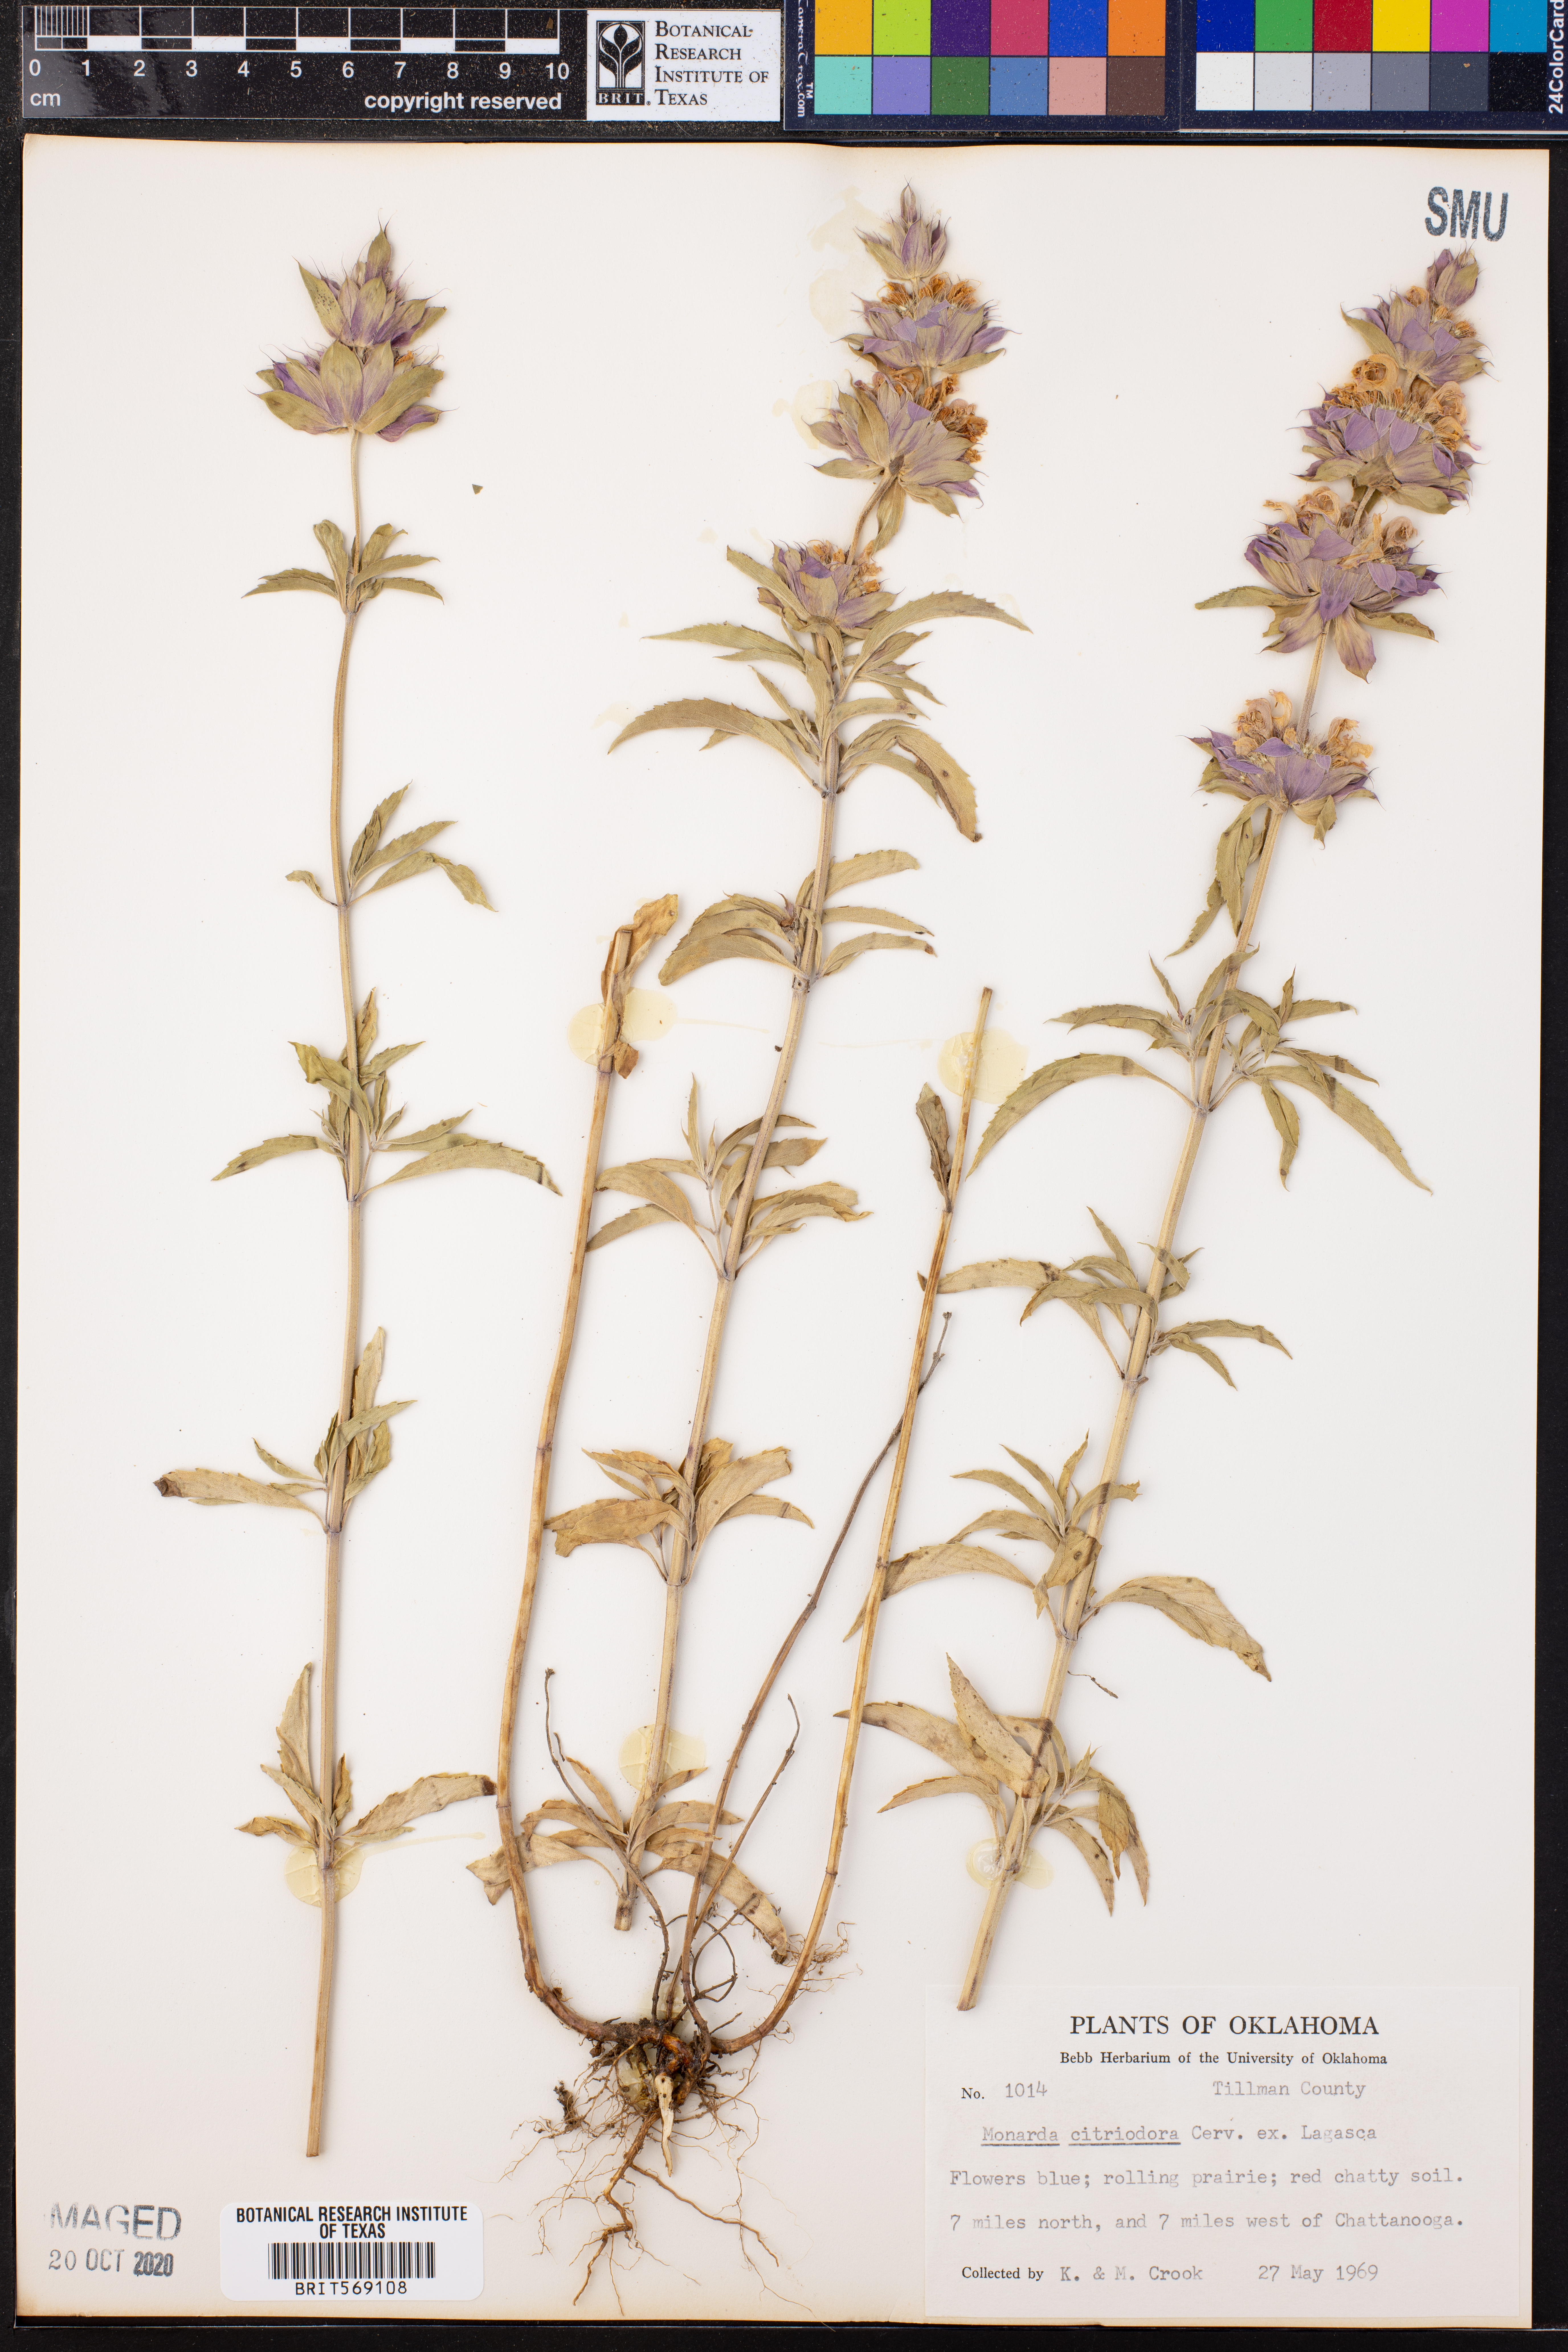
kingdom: Plantae
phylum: Tracheophyta
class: Magnoliopsida
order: Lamiales
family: Lamiaceae
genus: Monarda
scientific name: Monarda citriodora
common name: Lemon beebalm
